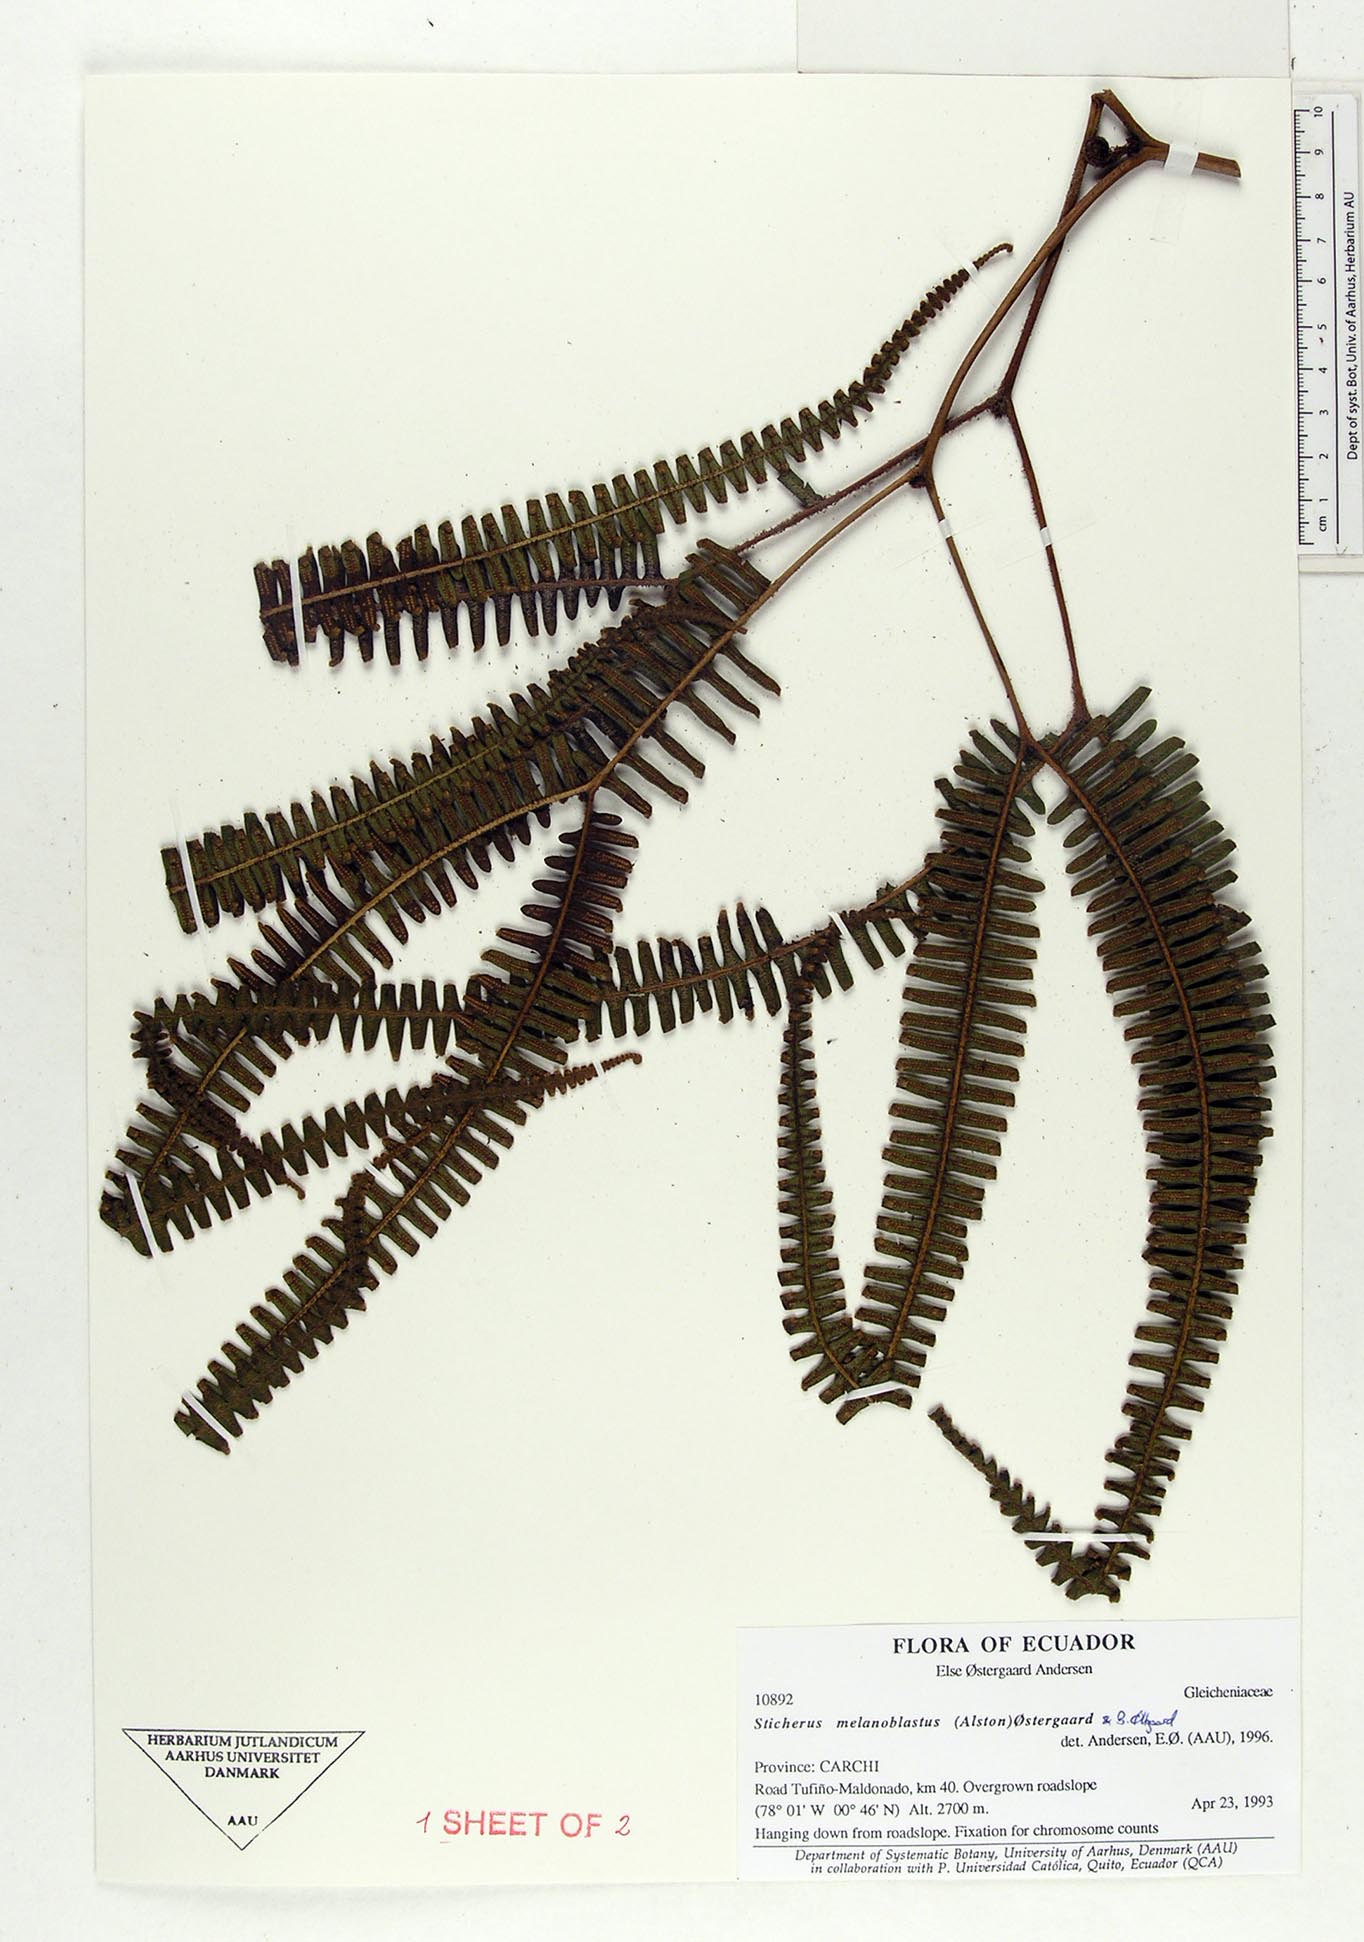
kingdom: Plantae
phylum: Tracheophyta
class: Polypodiopsida
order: Gleicheniales
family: Gleicheniaceae
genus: Sticherus
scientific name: Sticherus melanoblastus
